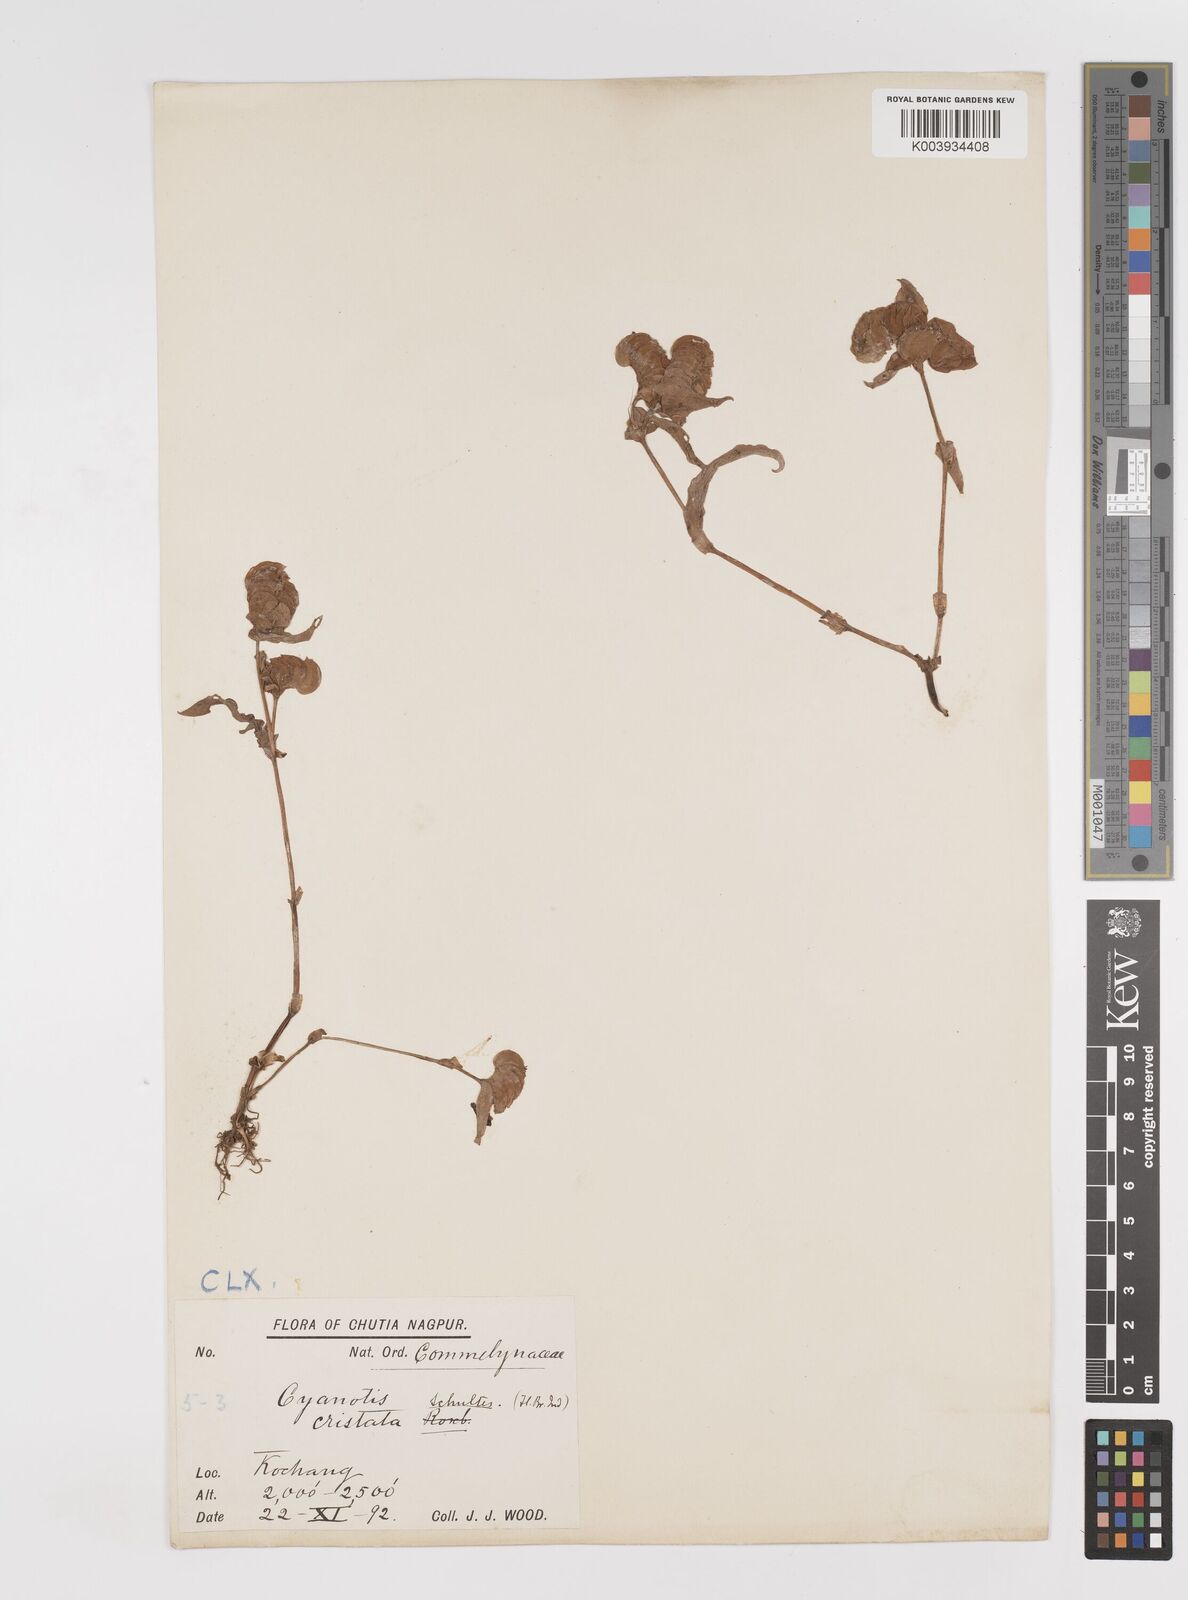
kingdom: Plantae
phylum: Tracheophyta
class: Liliopsida
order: Commelinales
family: Commelinaceae
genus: Cyanotis
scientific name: Cyanotis cristata
